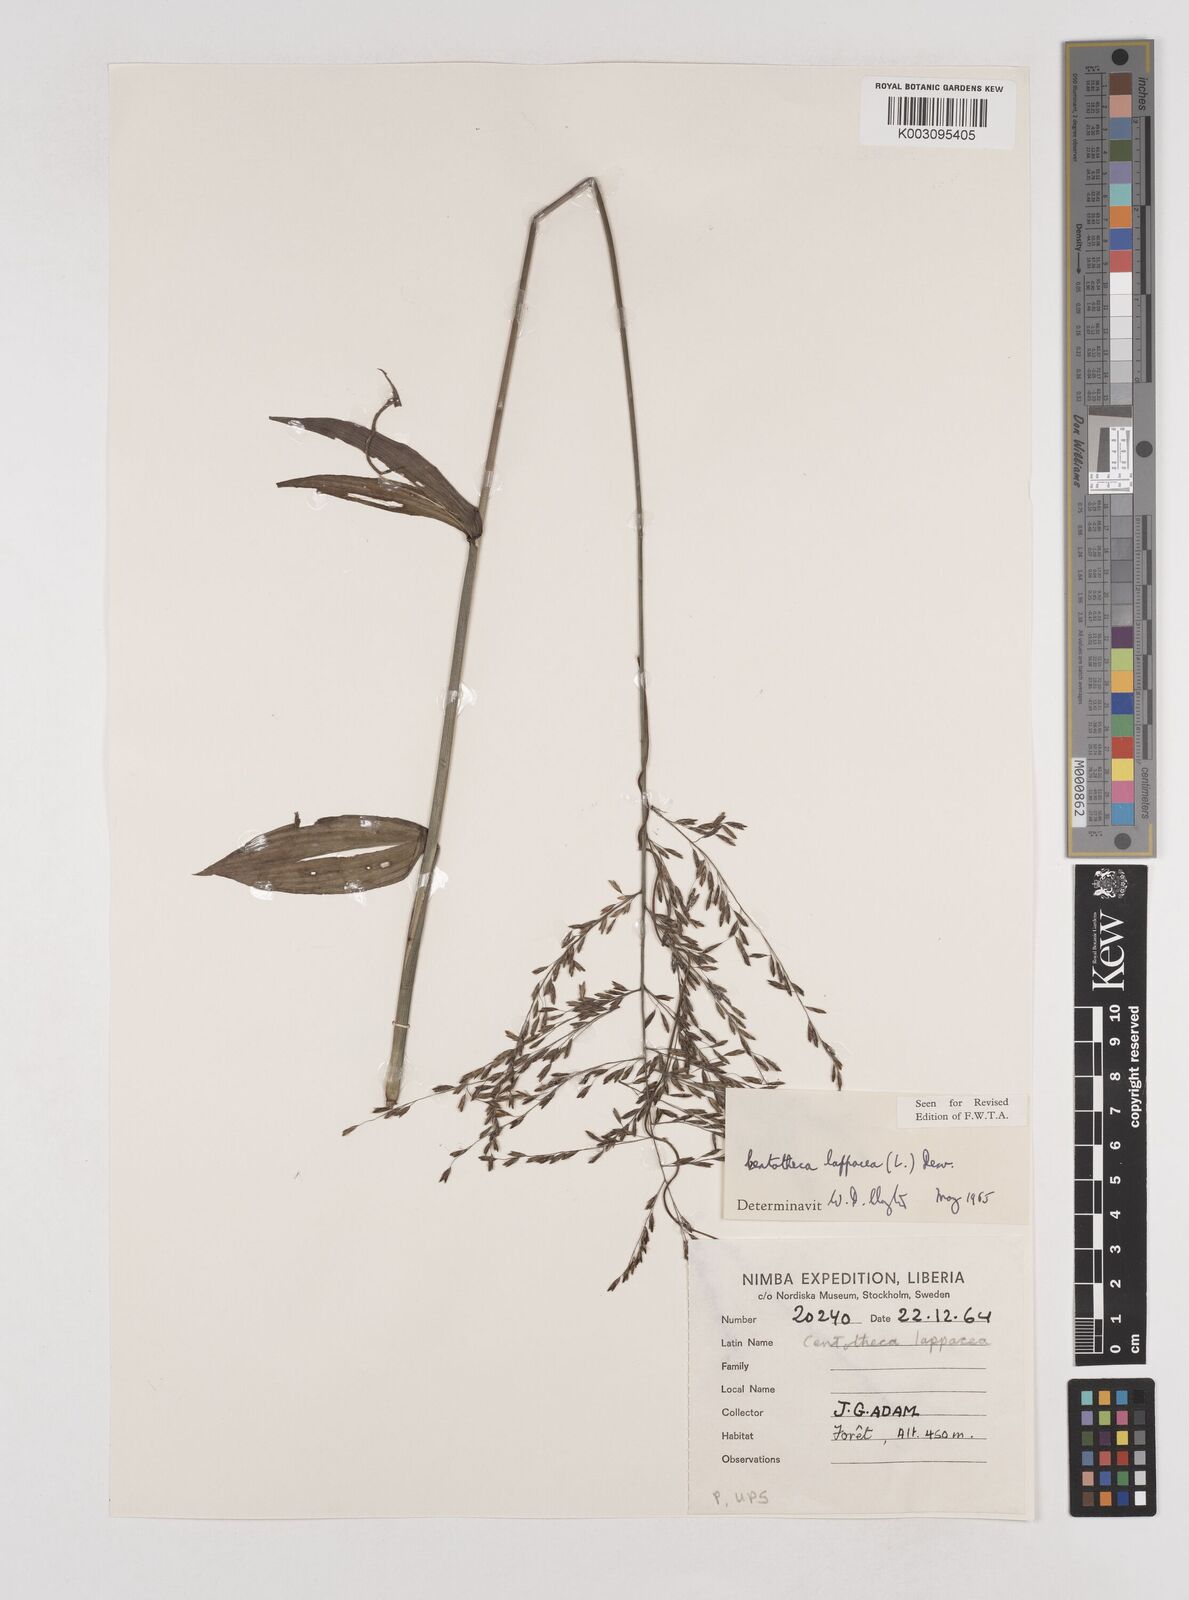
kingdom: Plantae
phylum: Tracheophyta
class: Liliopsida
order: Poales
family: Poaceae
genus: Centotheca
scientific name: Centotheca lappacea
